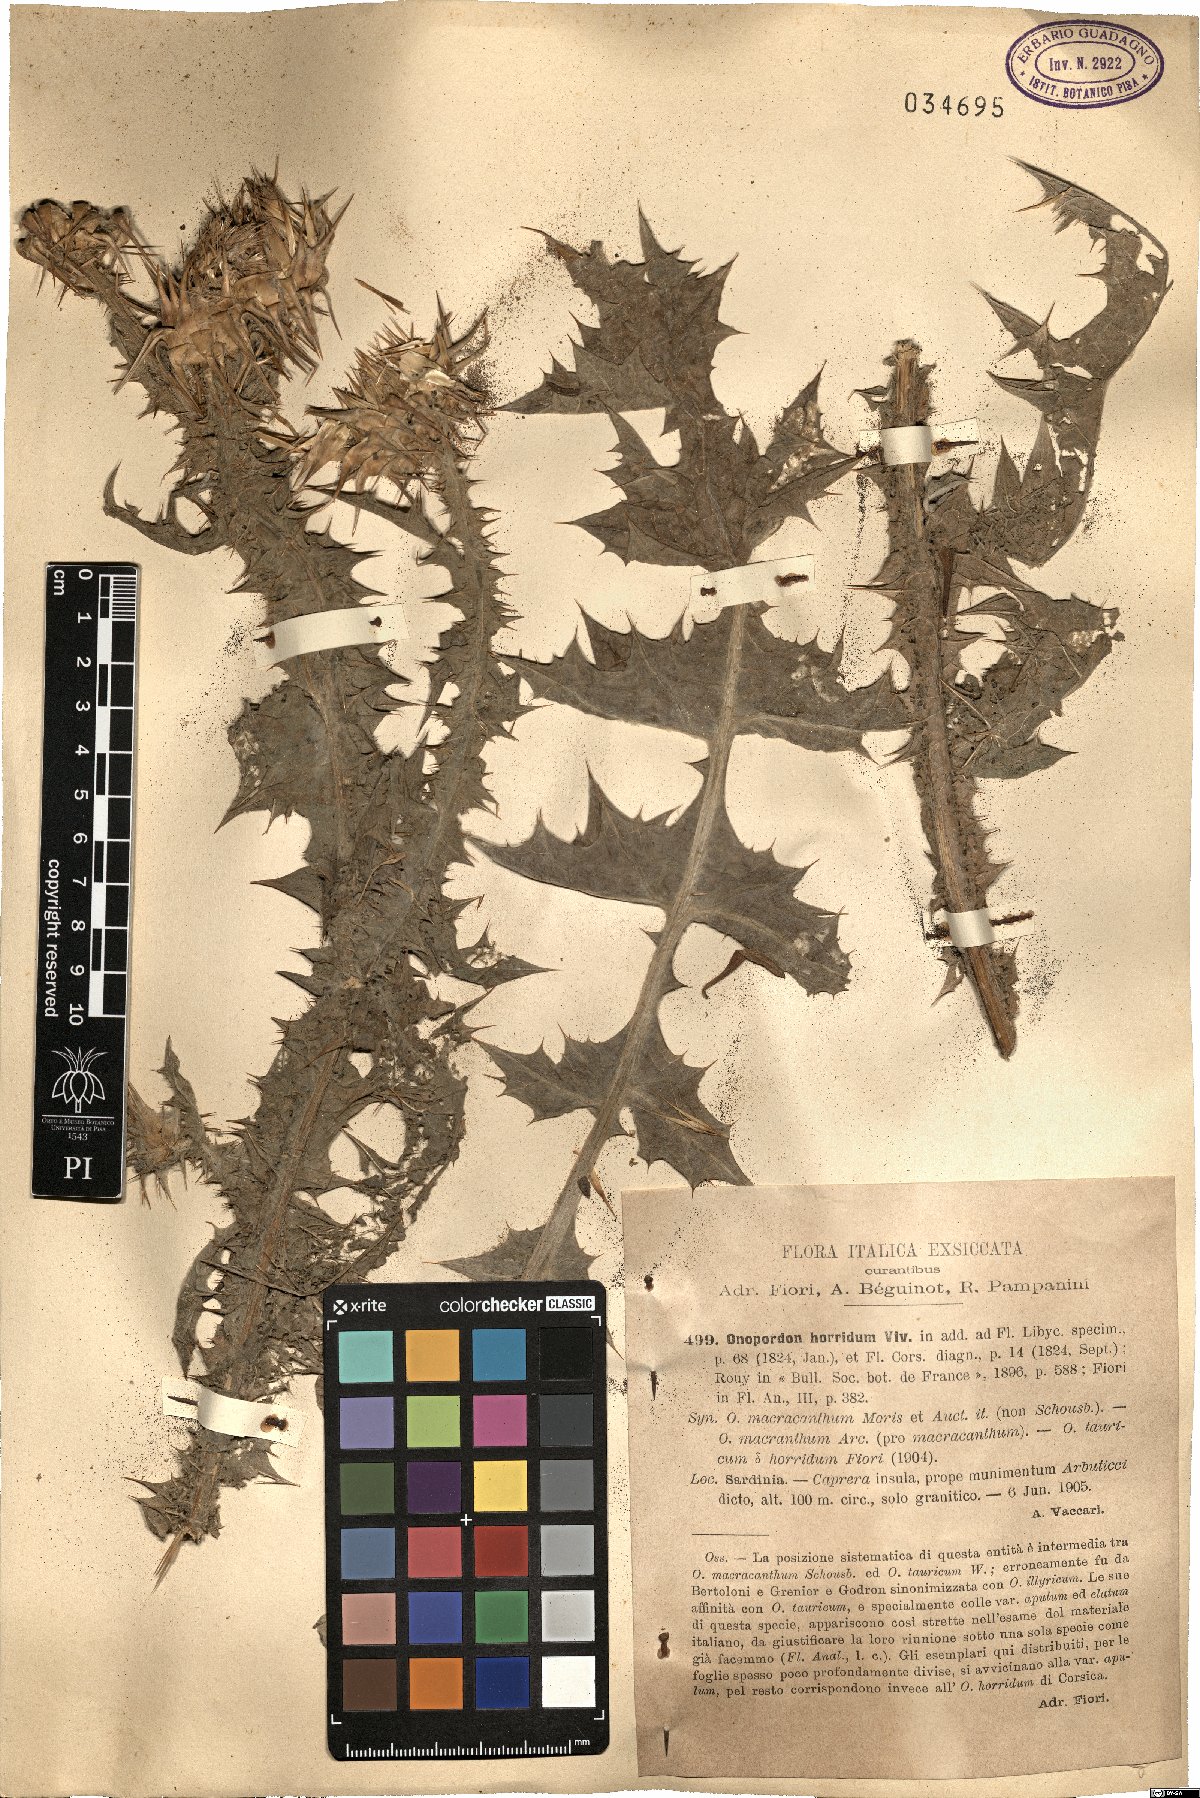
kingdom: Plantae
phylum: Tracheophyta
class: Magnoliopsida
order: Asterales
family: Asteraceae
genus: Onopordum
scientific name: Onopordum horridum
